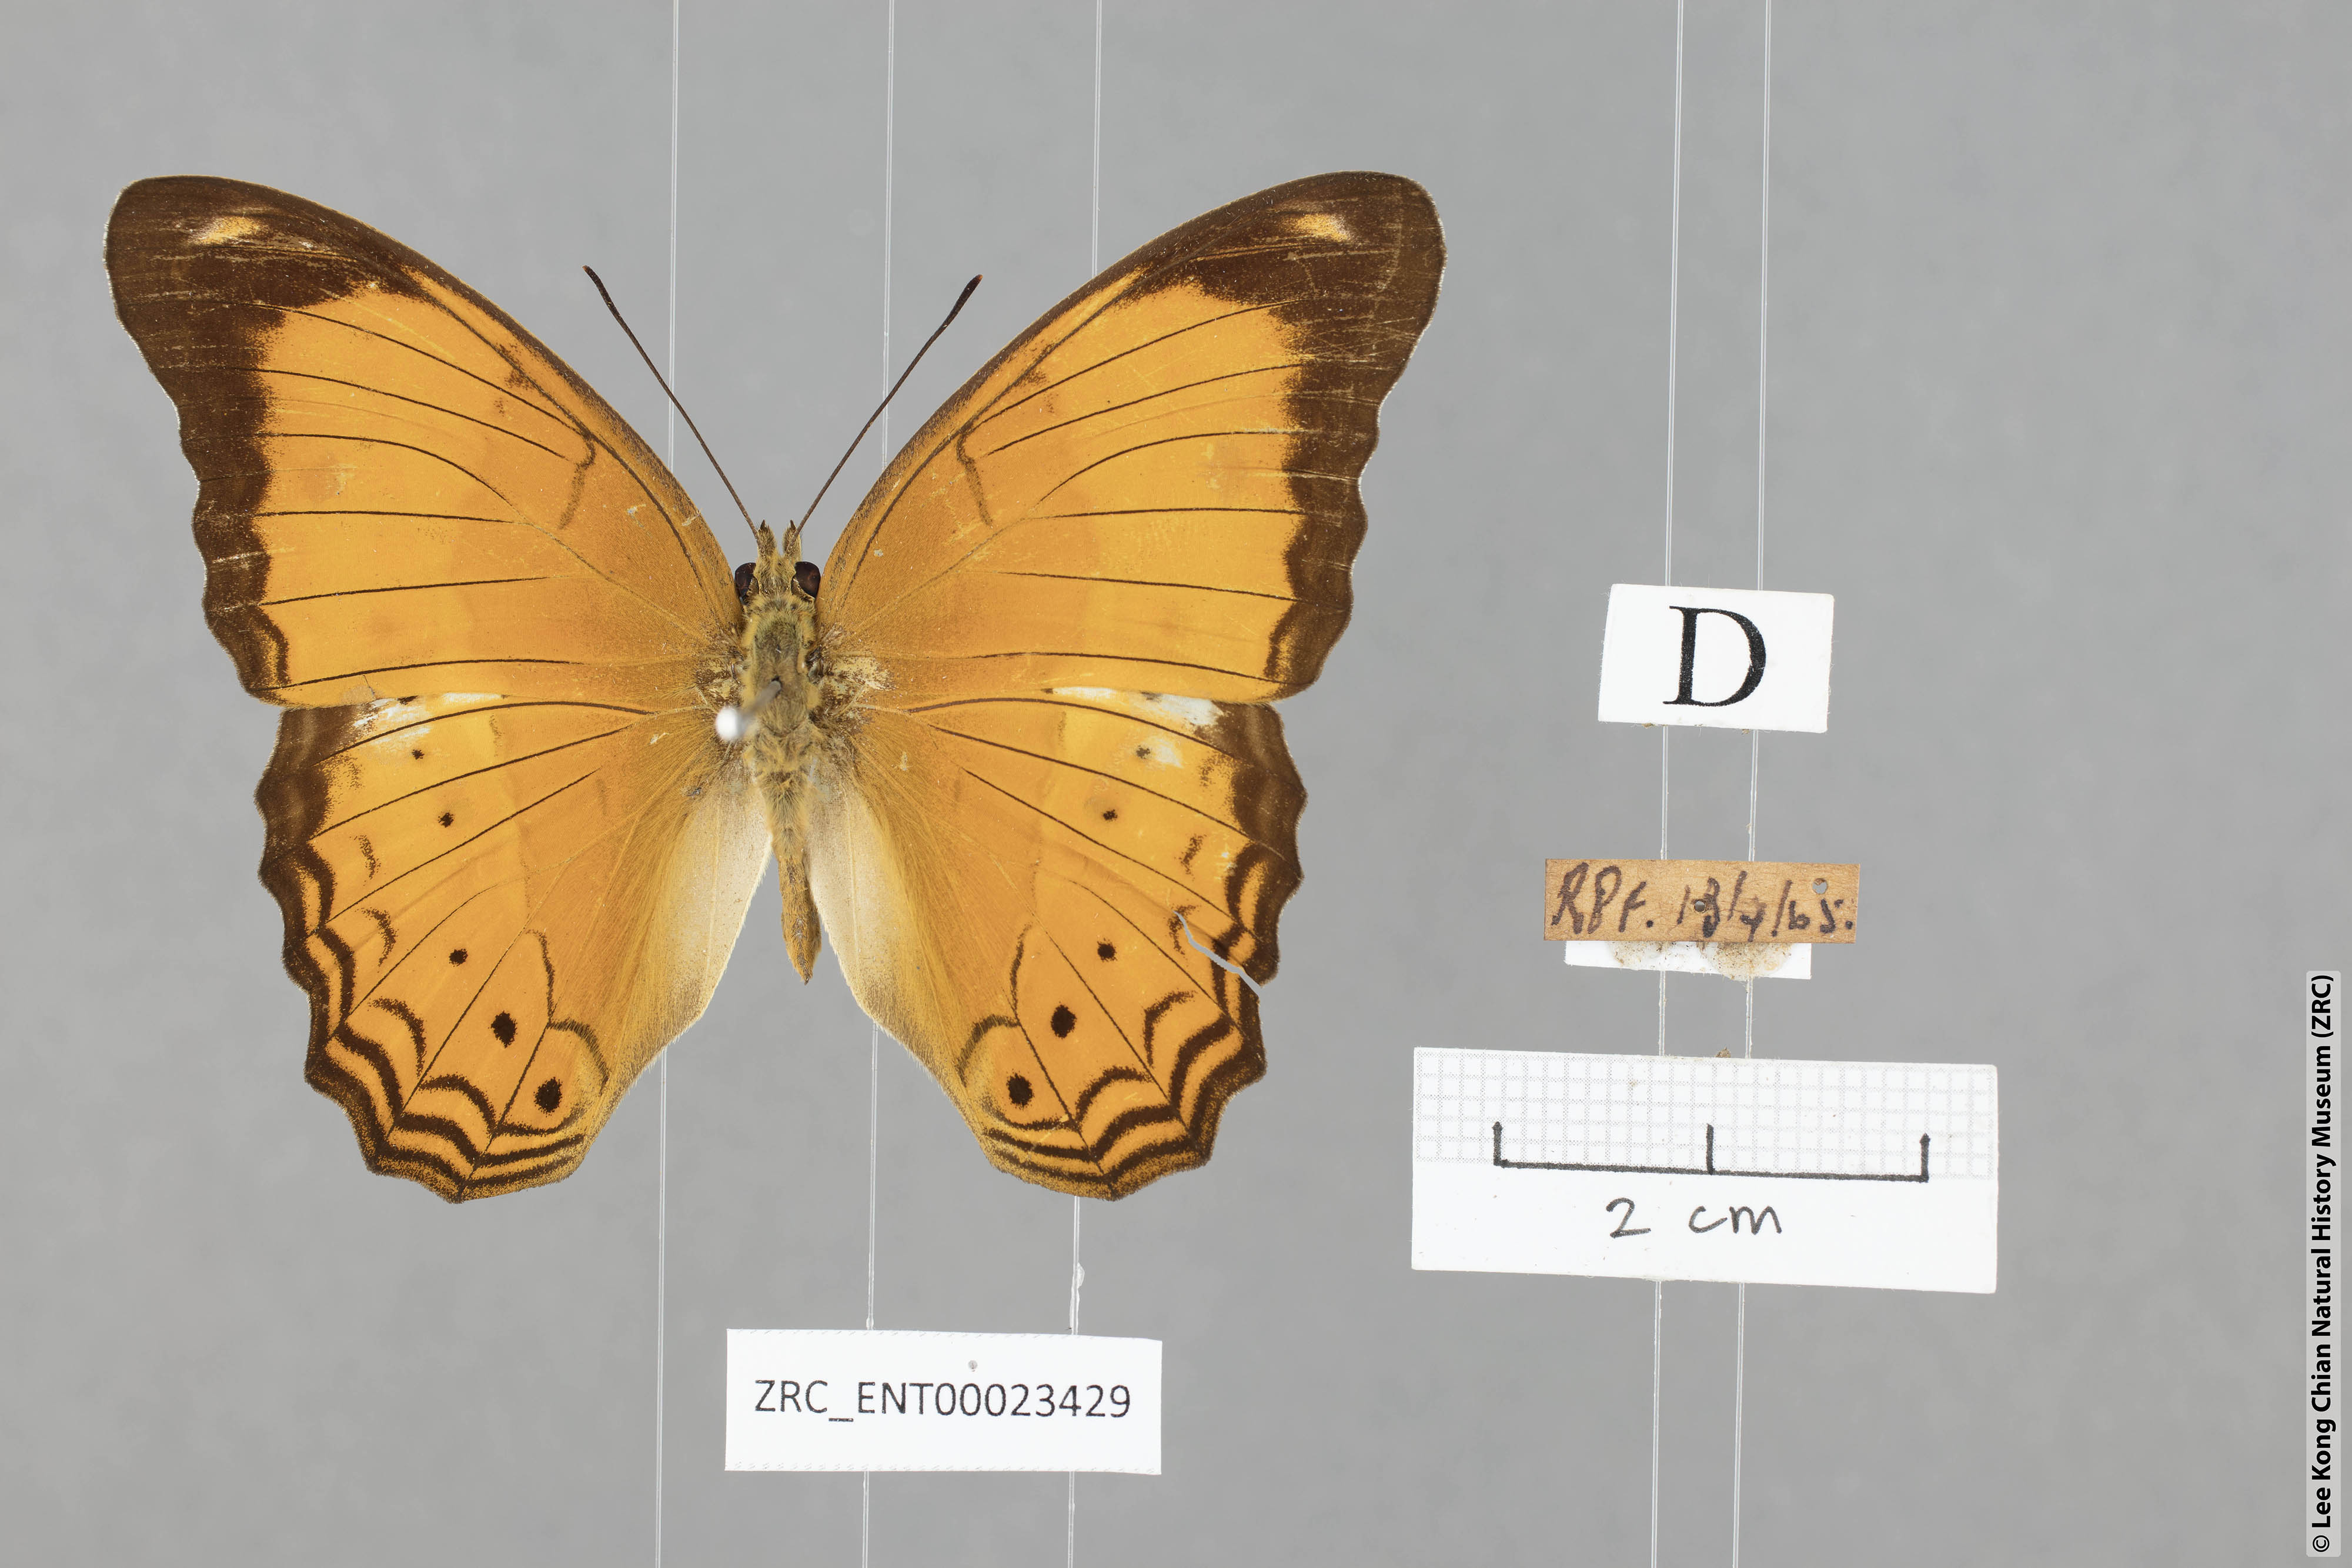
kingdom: Animalia
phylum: Arthropoda
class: Insecta
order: Lepidoptera
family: Nymphalidae
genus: Cirrochroa
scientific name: Cirrochroa emalea
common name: Malay yeoman
